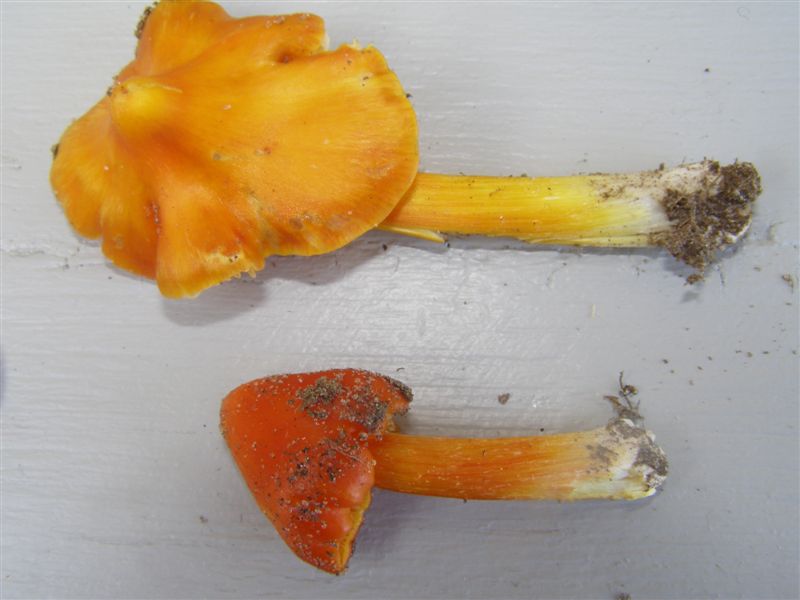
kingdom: Fungi
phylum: Basidiomycota
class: Agaricomycetes
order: Agaricales
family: Hygrophoraceae
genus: Hygrocybe
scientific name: Hygrocybe acutoconica
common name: spidspuklet vokshat
